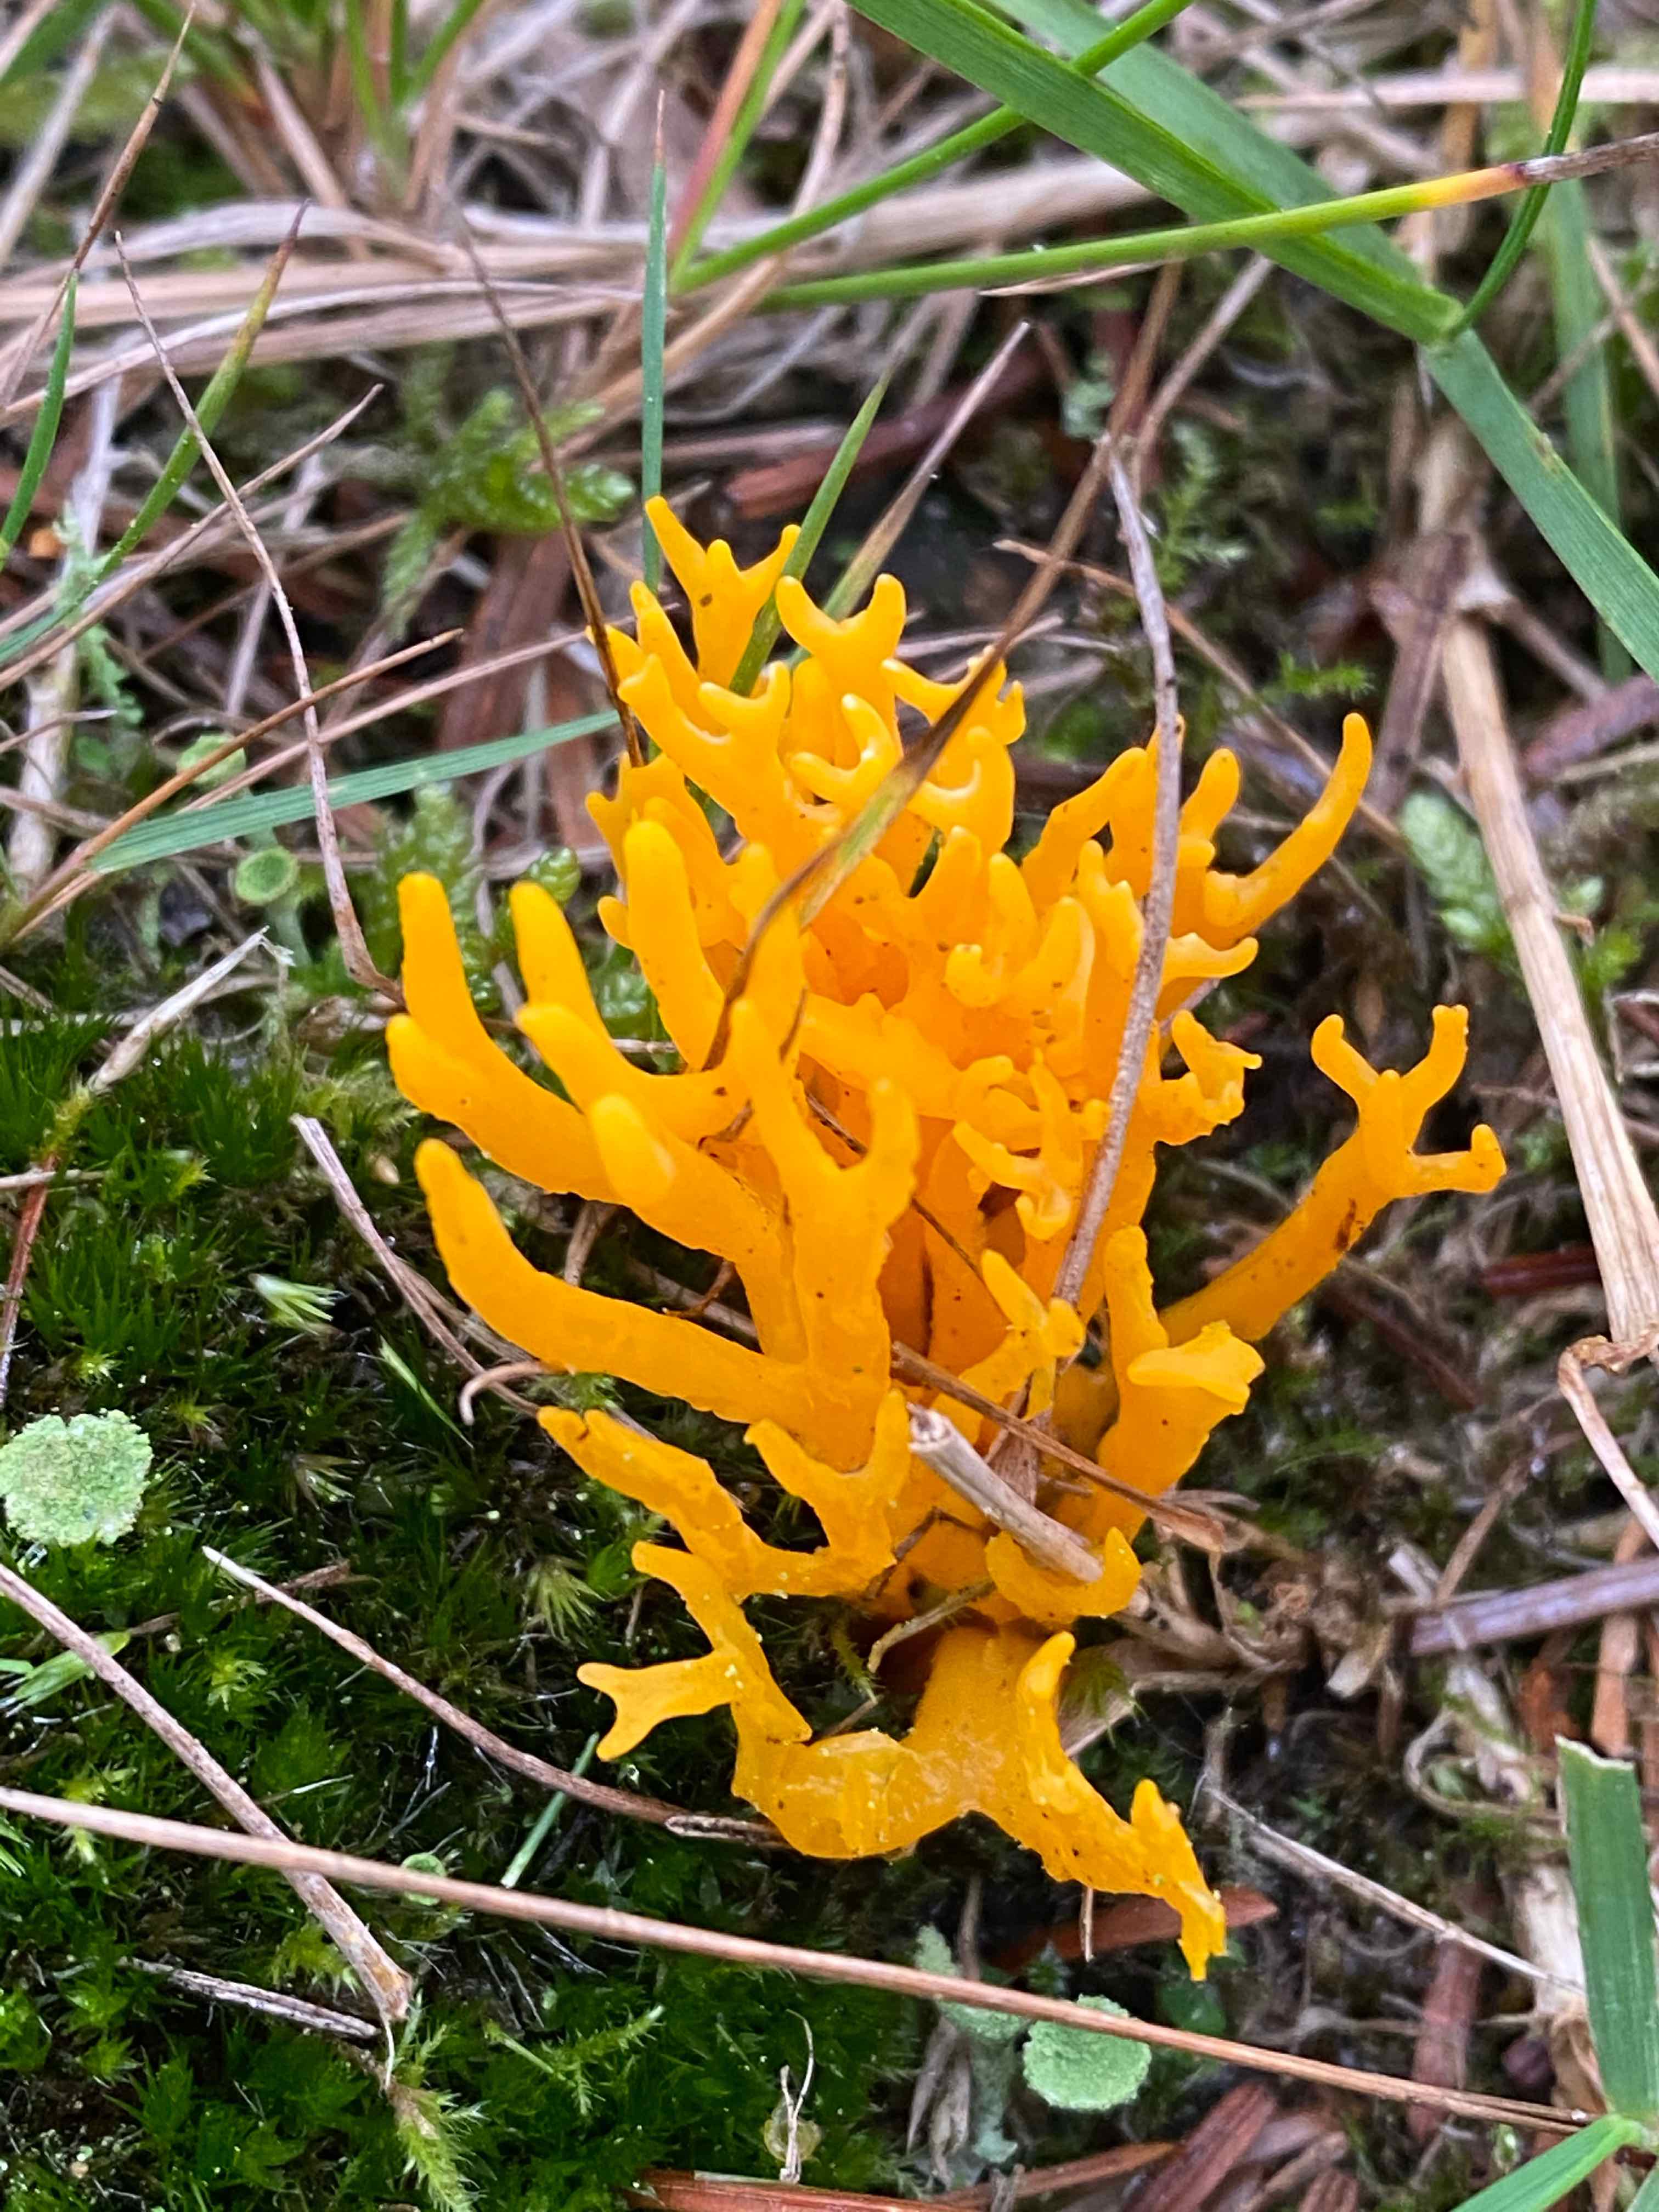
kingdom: Fungi
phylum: Basidiomycota
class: Dacrymycetes
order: Dacrymycetales
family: Dacrymycetaceae
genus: Calocera
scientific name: Calocera viscosa
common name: almindelig guldgaffel
